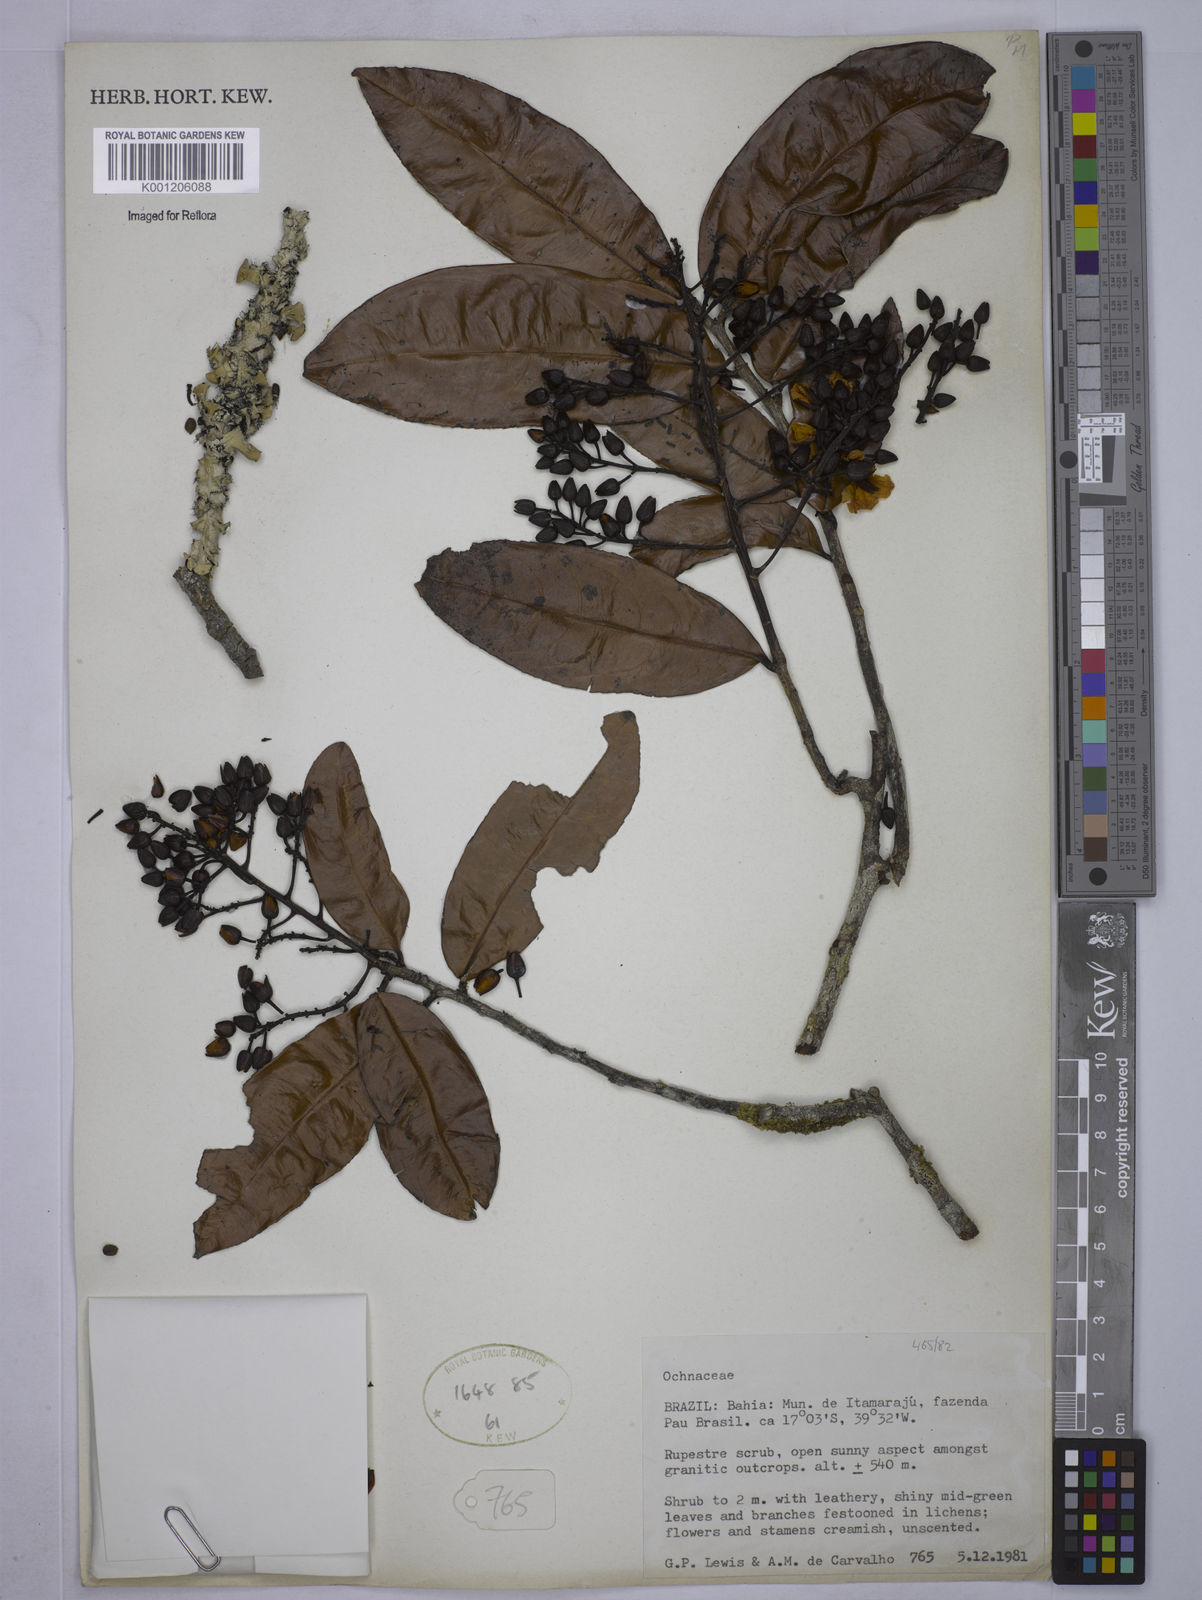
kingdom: Plantae
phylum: Tracheophyta
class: Magnoliopsida
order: Malpighiales
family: Ochnaceae
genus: Ouratea
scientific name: Ouratea hexasperma
